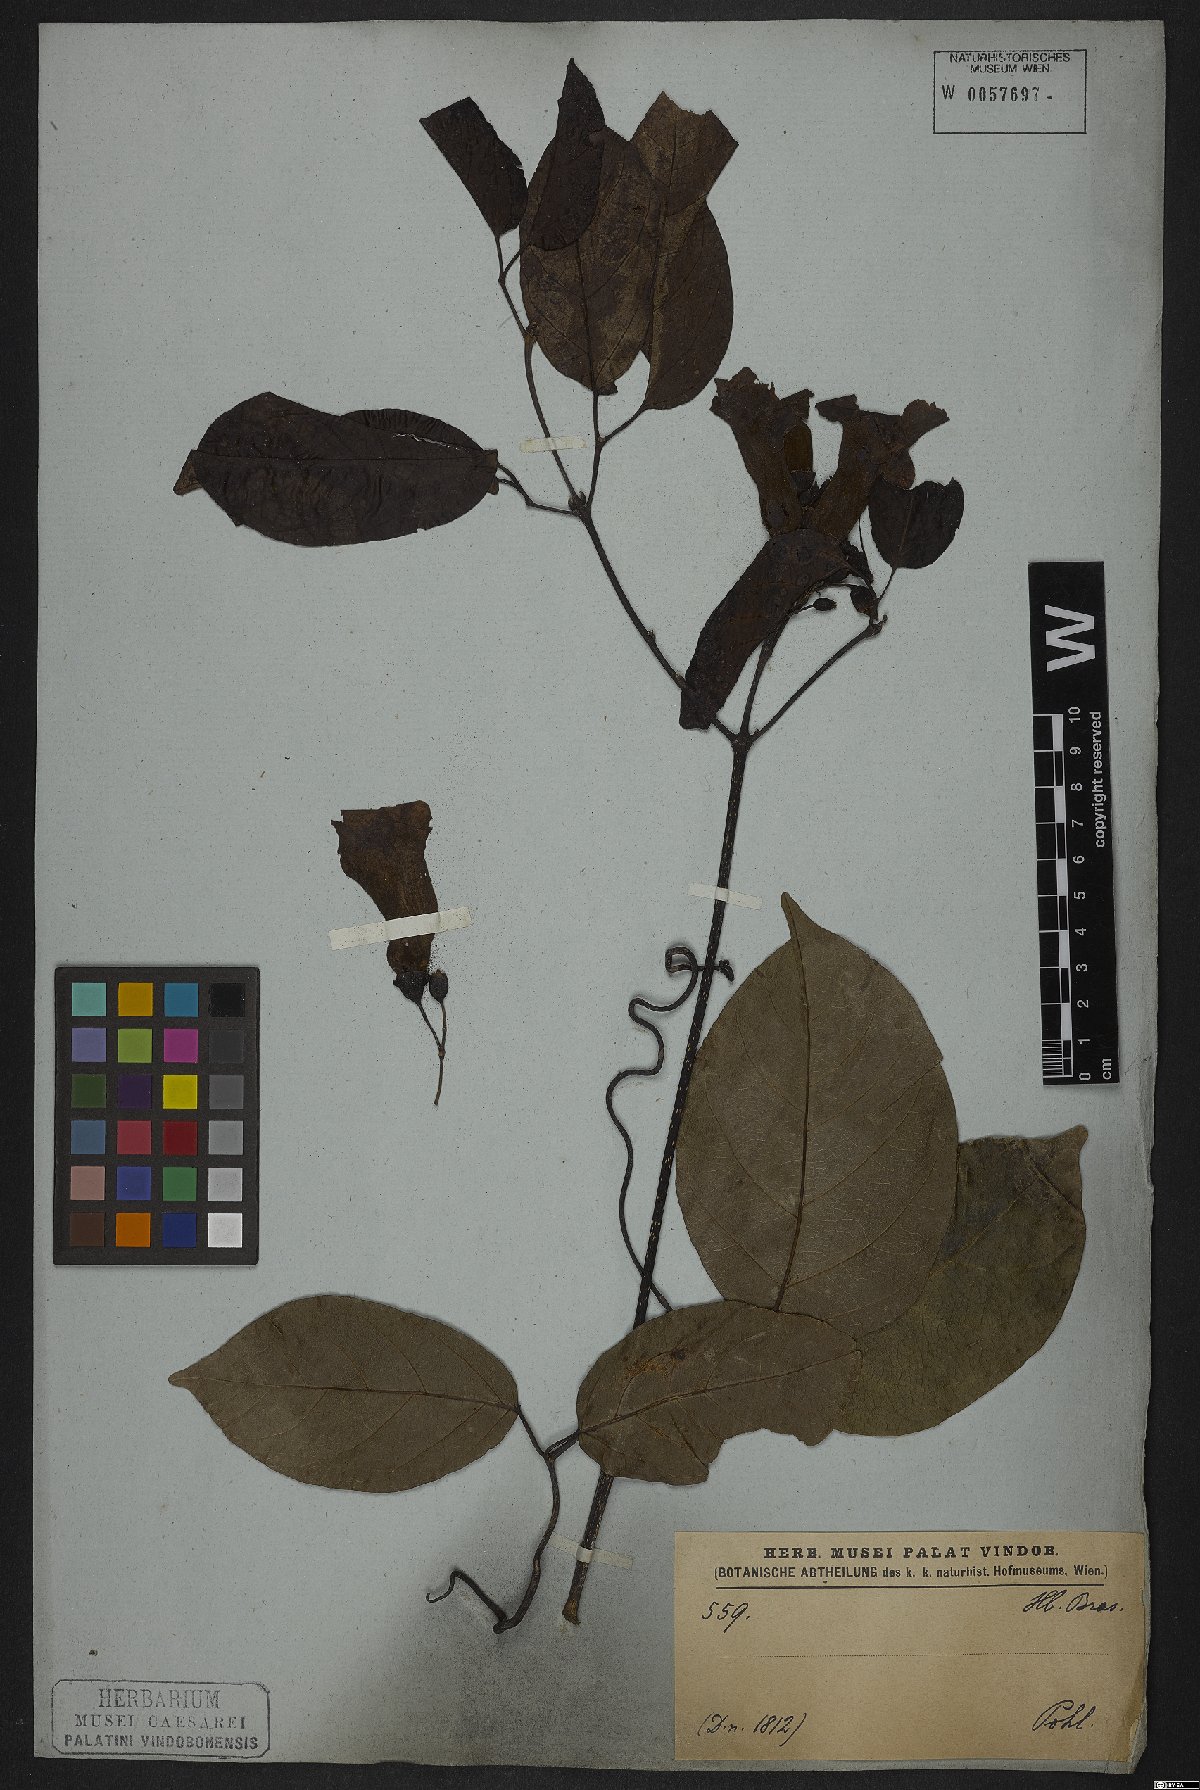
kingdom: Plantae
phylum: Tracheophyta
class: Magnoliopsida
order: Lamiales
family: Bignoniaceae
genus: Tanaecium
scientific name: Tanaecium pyramidatum
